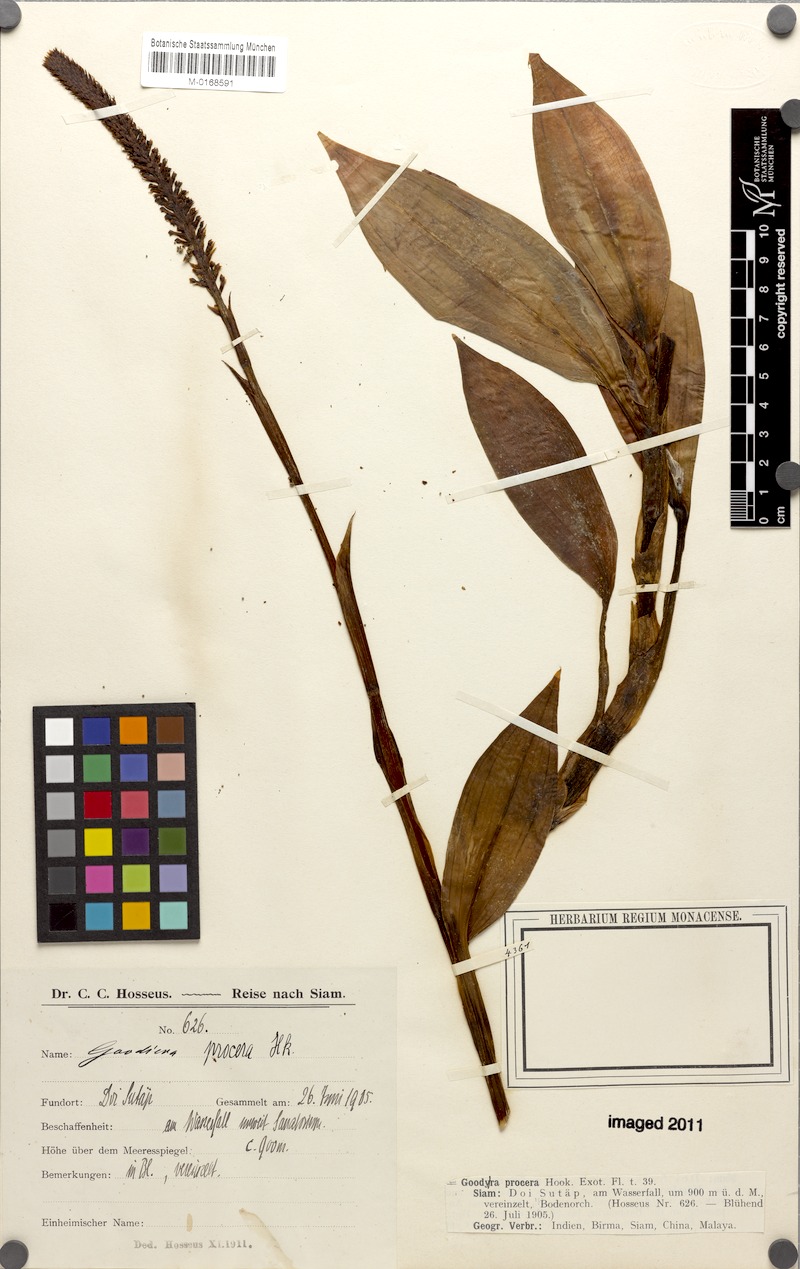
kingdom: Plantae
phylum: Tracheophyta
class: Liliopsida
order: Asparagales
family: Orchidaceae
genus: Goodyera
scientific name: Goodyera procera
